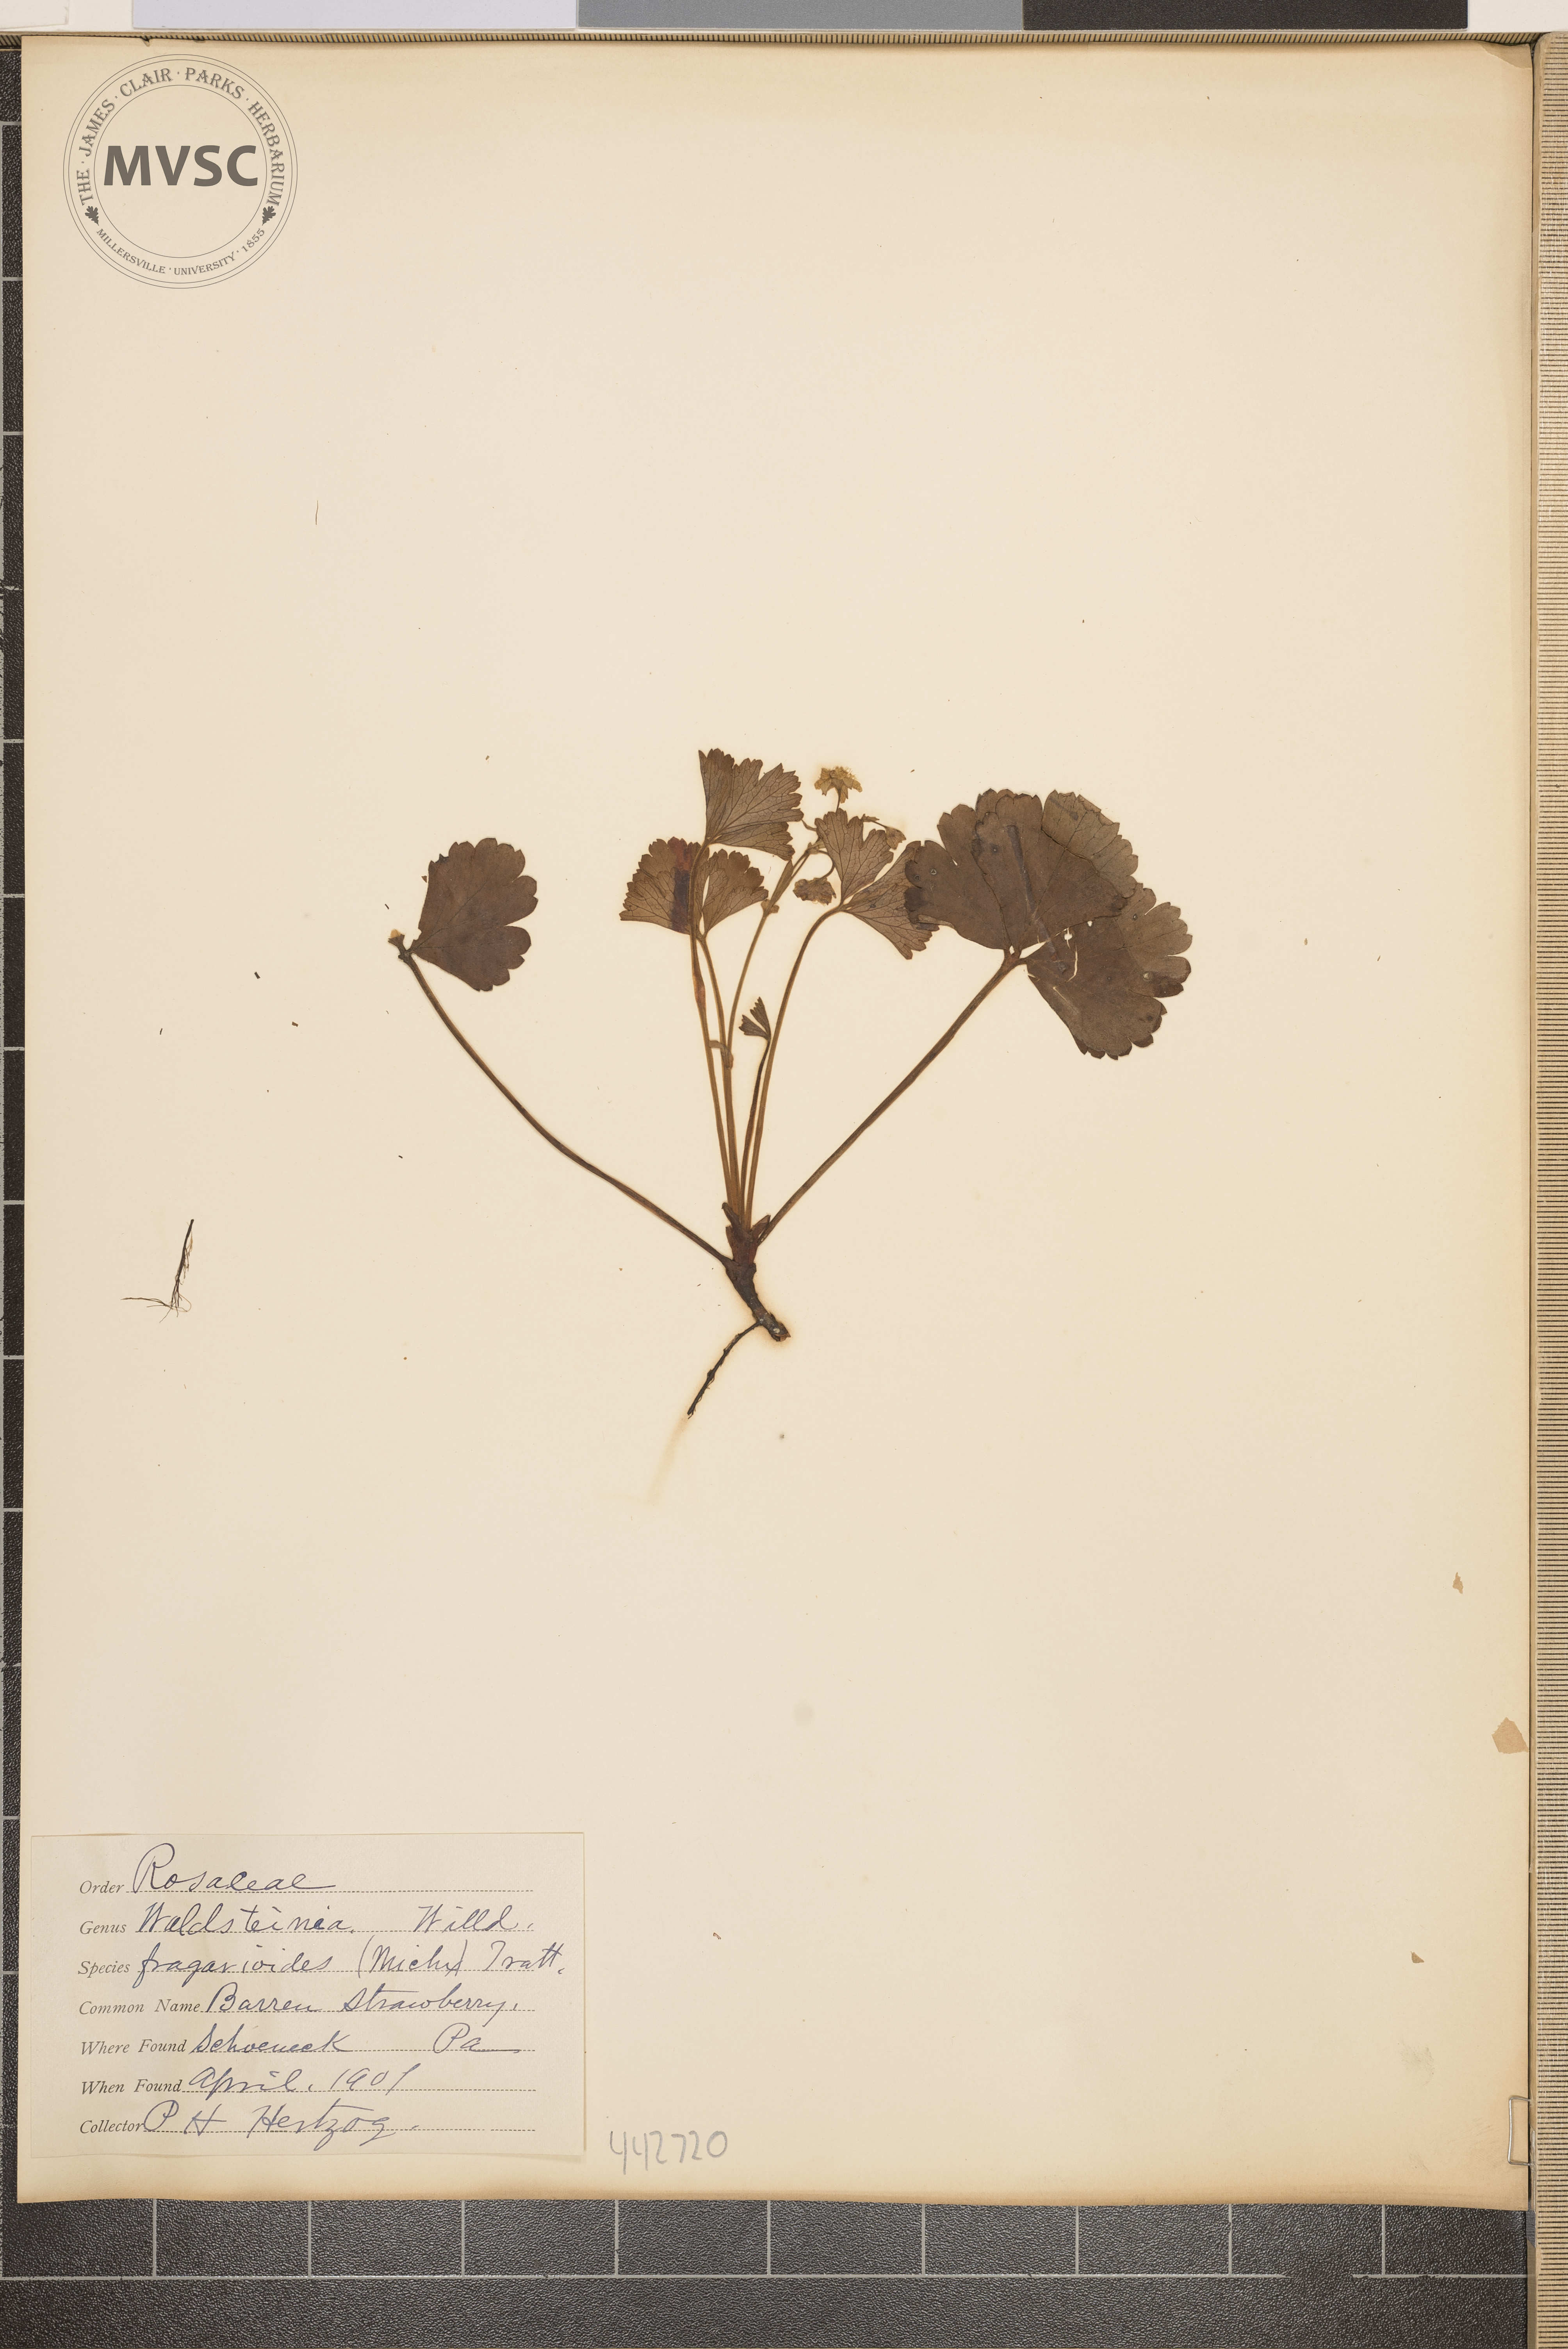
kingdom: Plantae
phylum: Tracheophyta
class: Magnoliopsida
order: Rosales
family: Rosaceae
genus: Geum
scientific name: Geum fragarioides
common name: Barren strawberry
